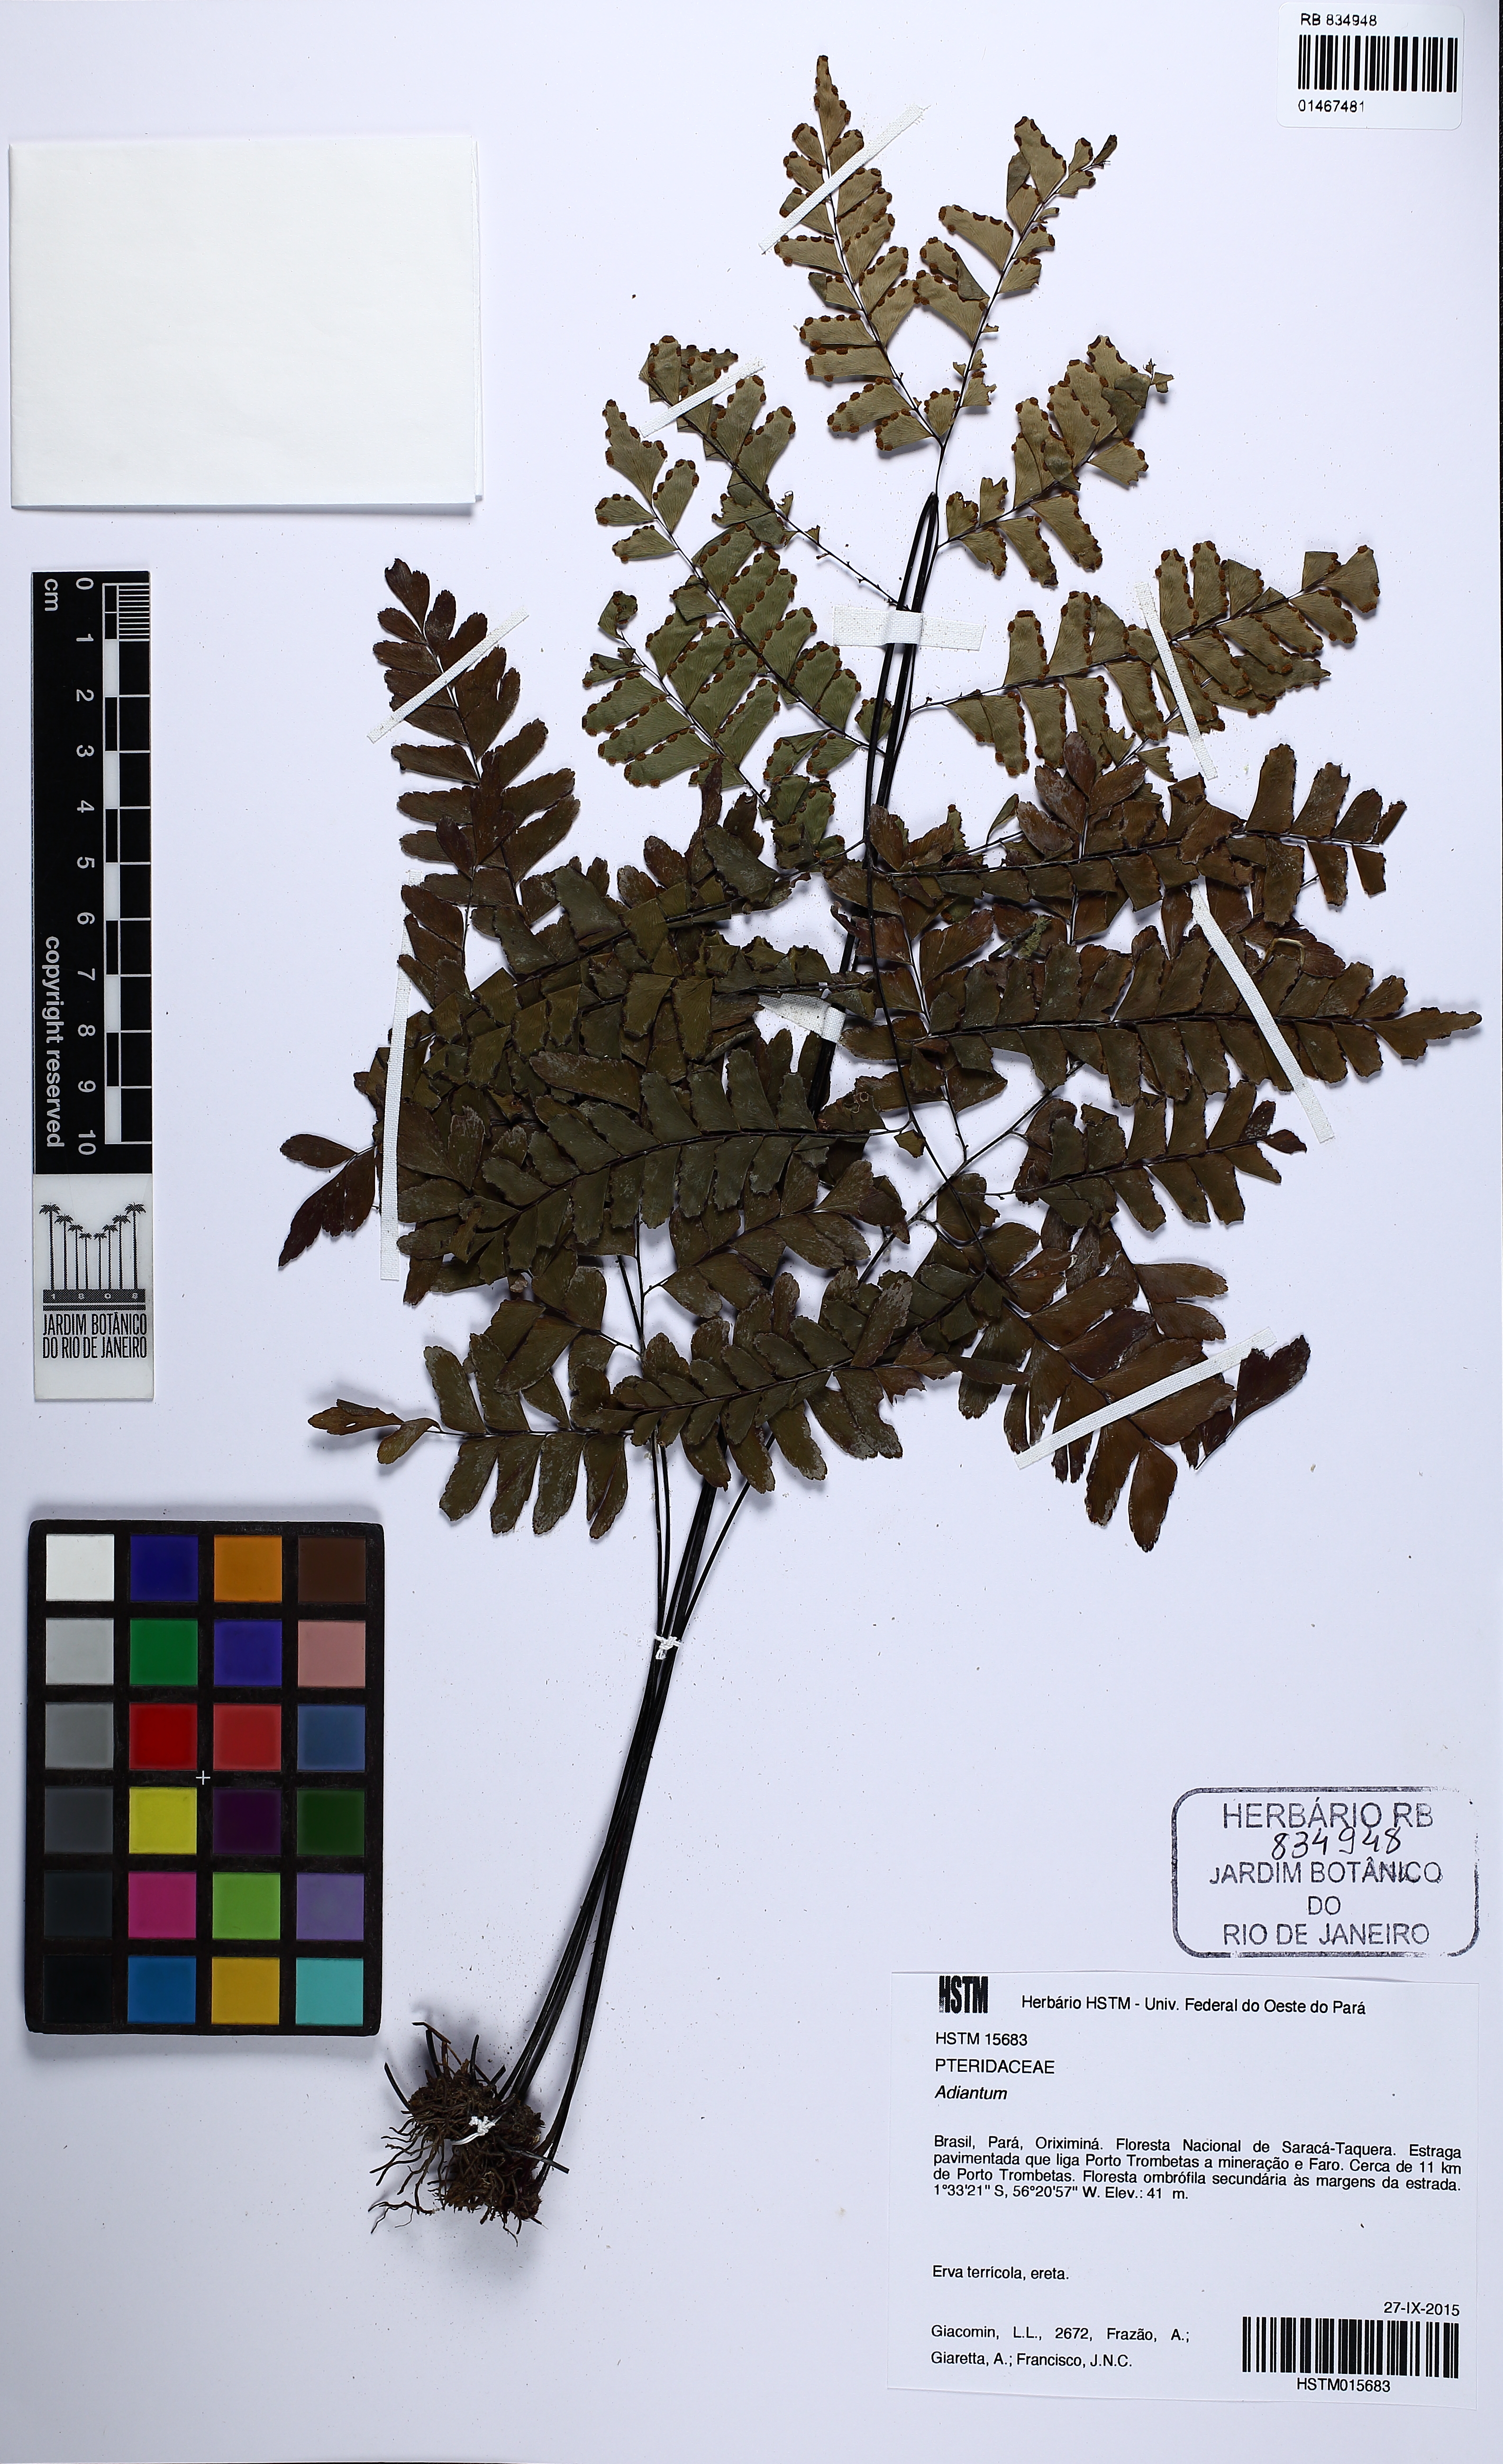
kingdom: Plantae
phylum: Tracheophyta
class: Polypodiopsida
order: Polypodiales
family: Pteridaceae
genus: Adiantum
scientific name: Adiantum
